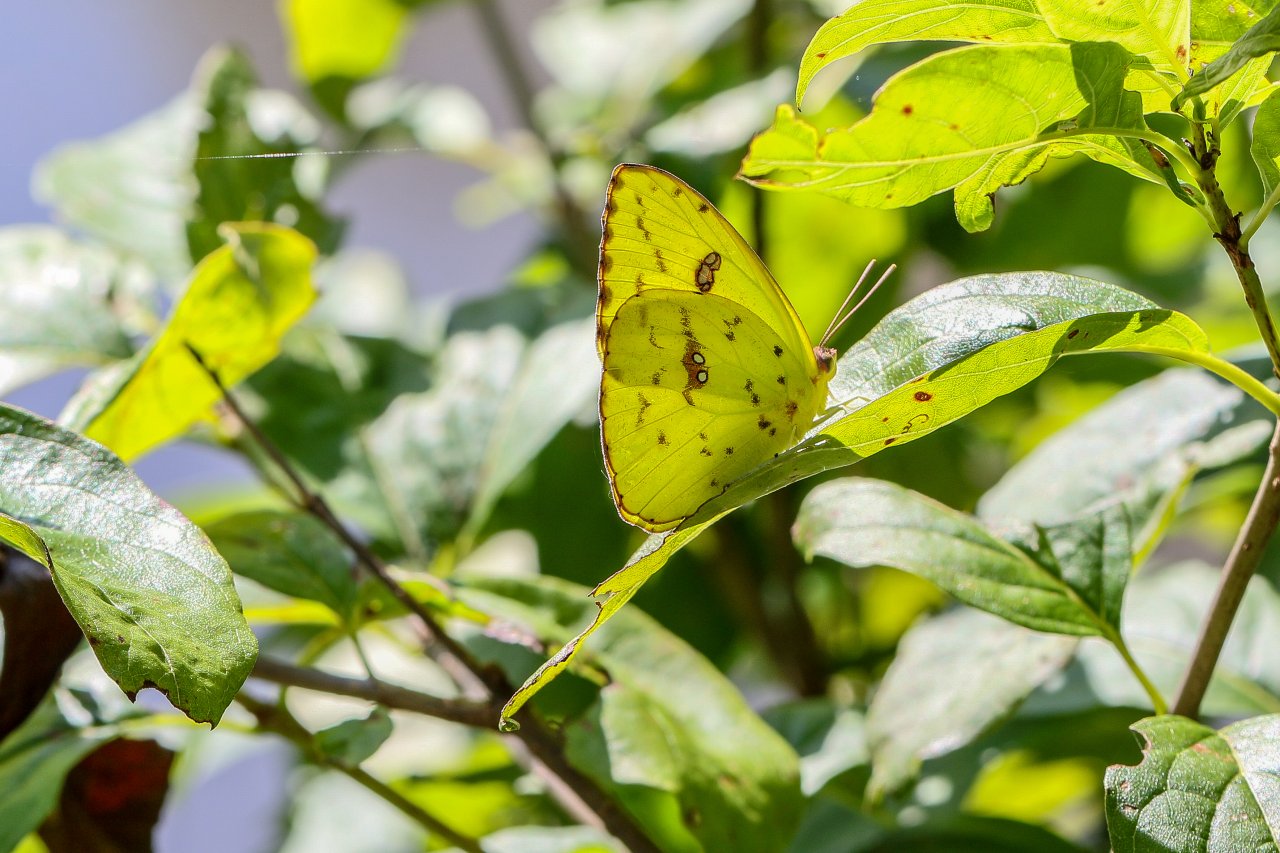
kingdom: Animalia
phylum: Arthropoda
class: Insecta
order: Lepidoptera
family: Pieridae
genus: Phoebis
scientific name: Phoebis sennae
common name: Cloudless Sulphur
